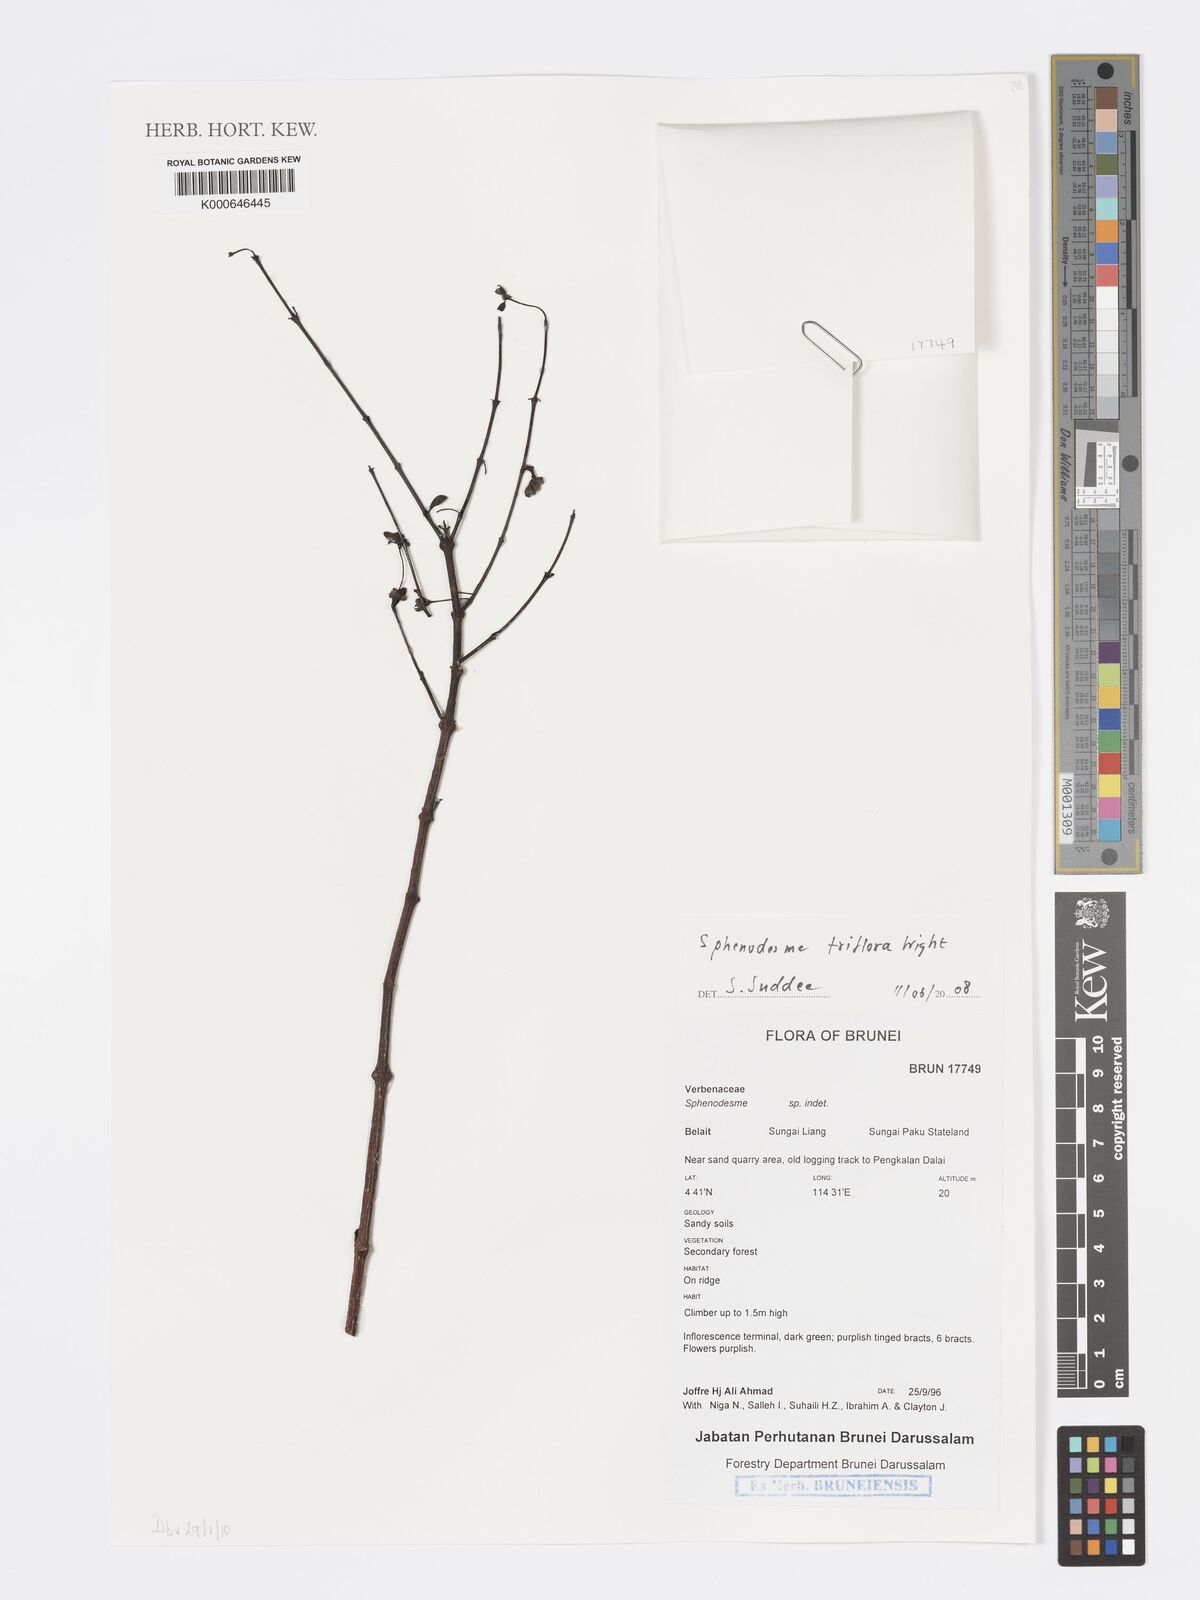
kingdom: Plantae
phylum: Tracheophyta
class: Magnoliopsida
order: Lamiales
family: Lamiaceae
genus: Sphenodesme
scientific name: Sphenodesme triflora
